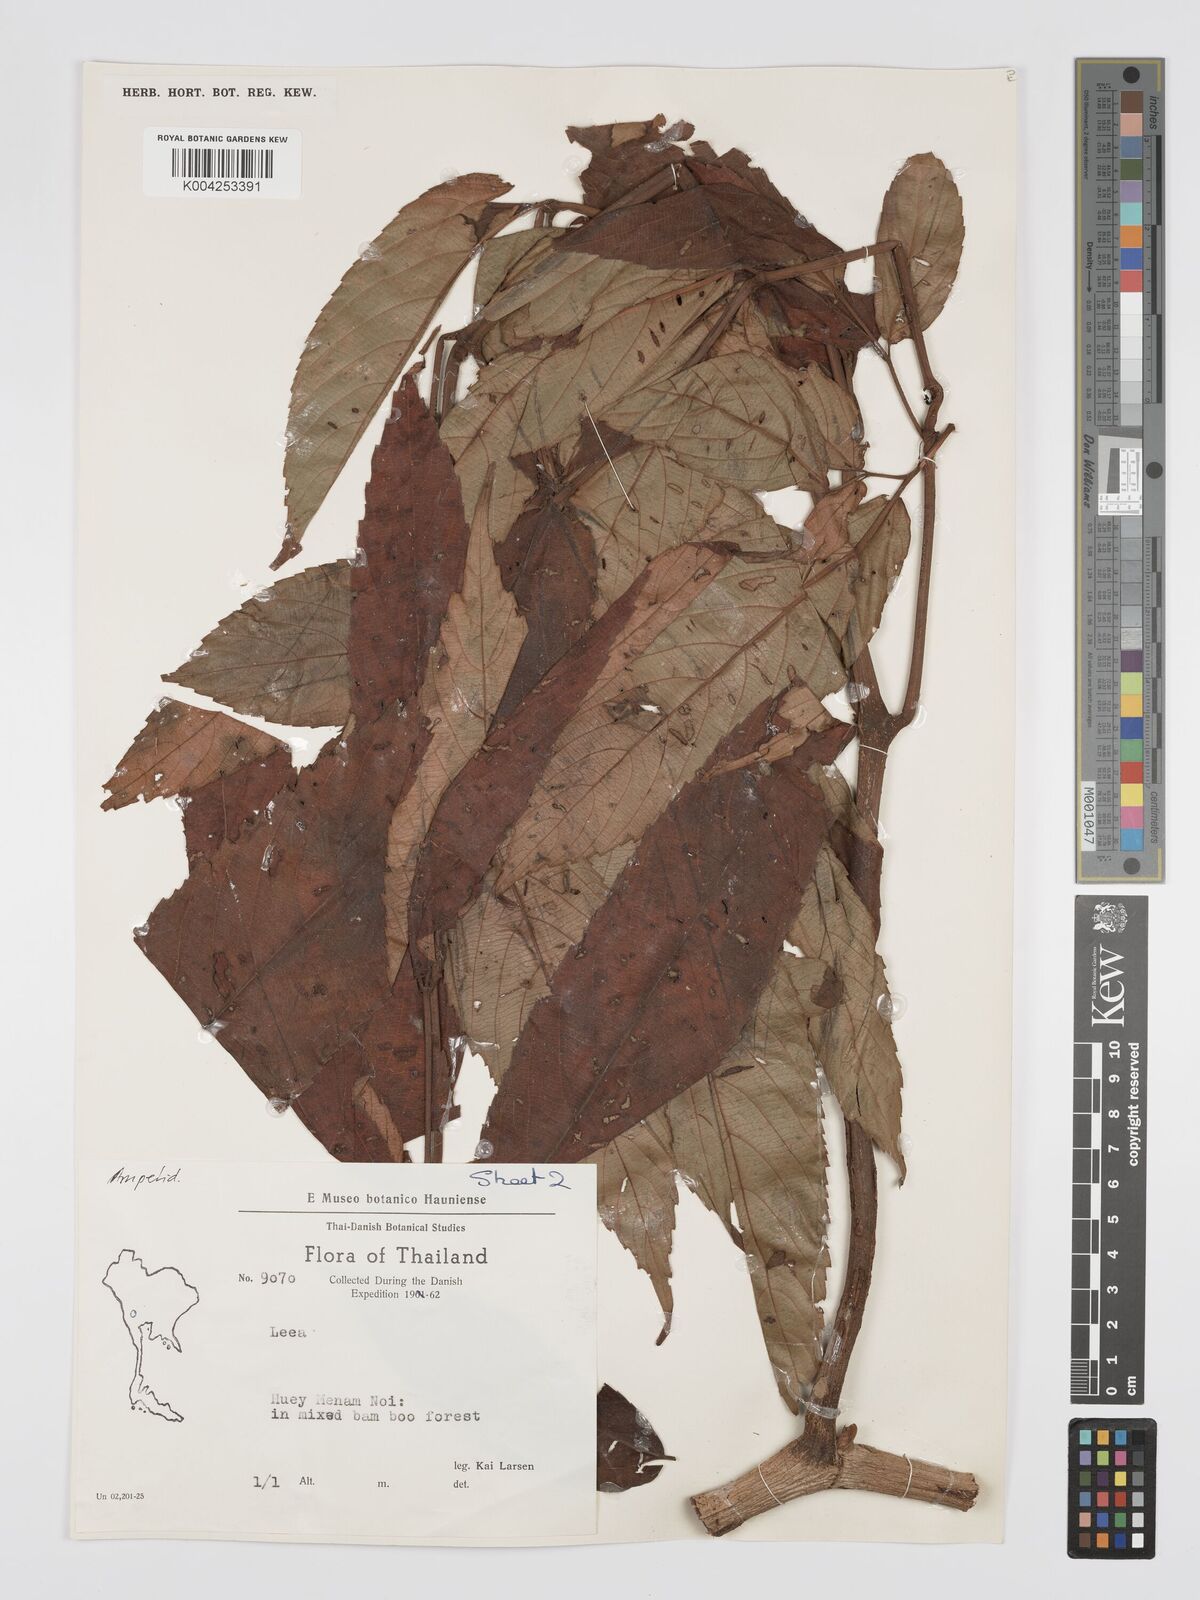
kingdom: Plantae
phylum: Tracheophyta
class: Magnoliopsida
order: Vitales
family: Vitaceae
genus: Leea
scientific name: Leea
